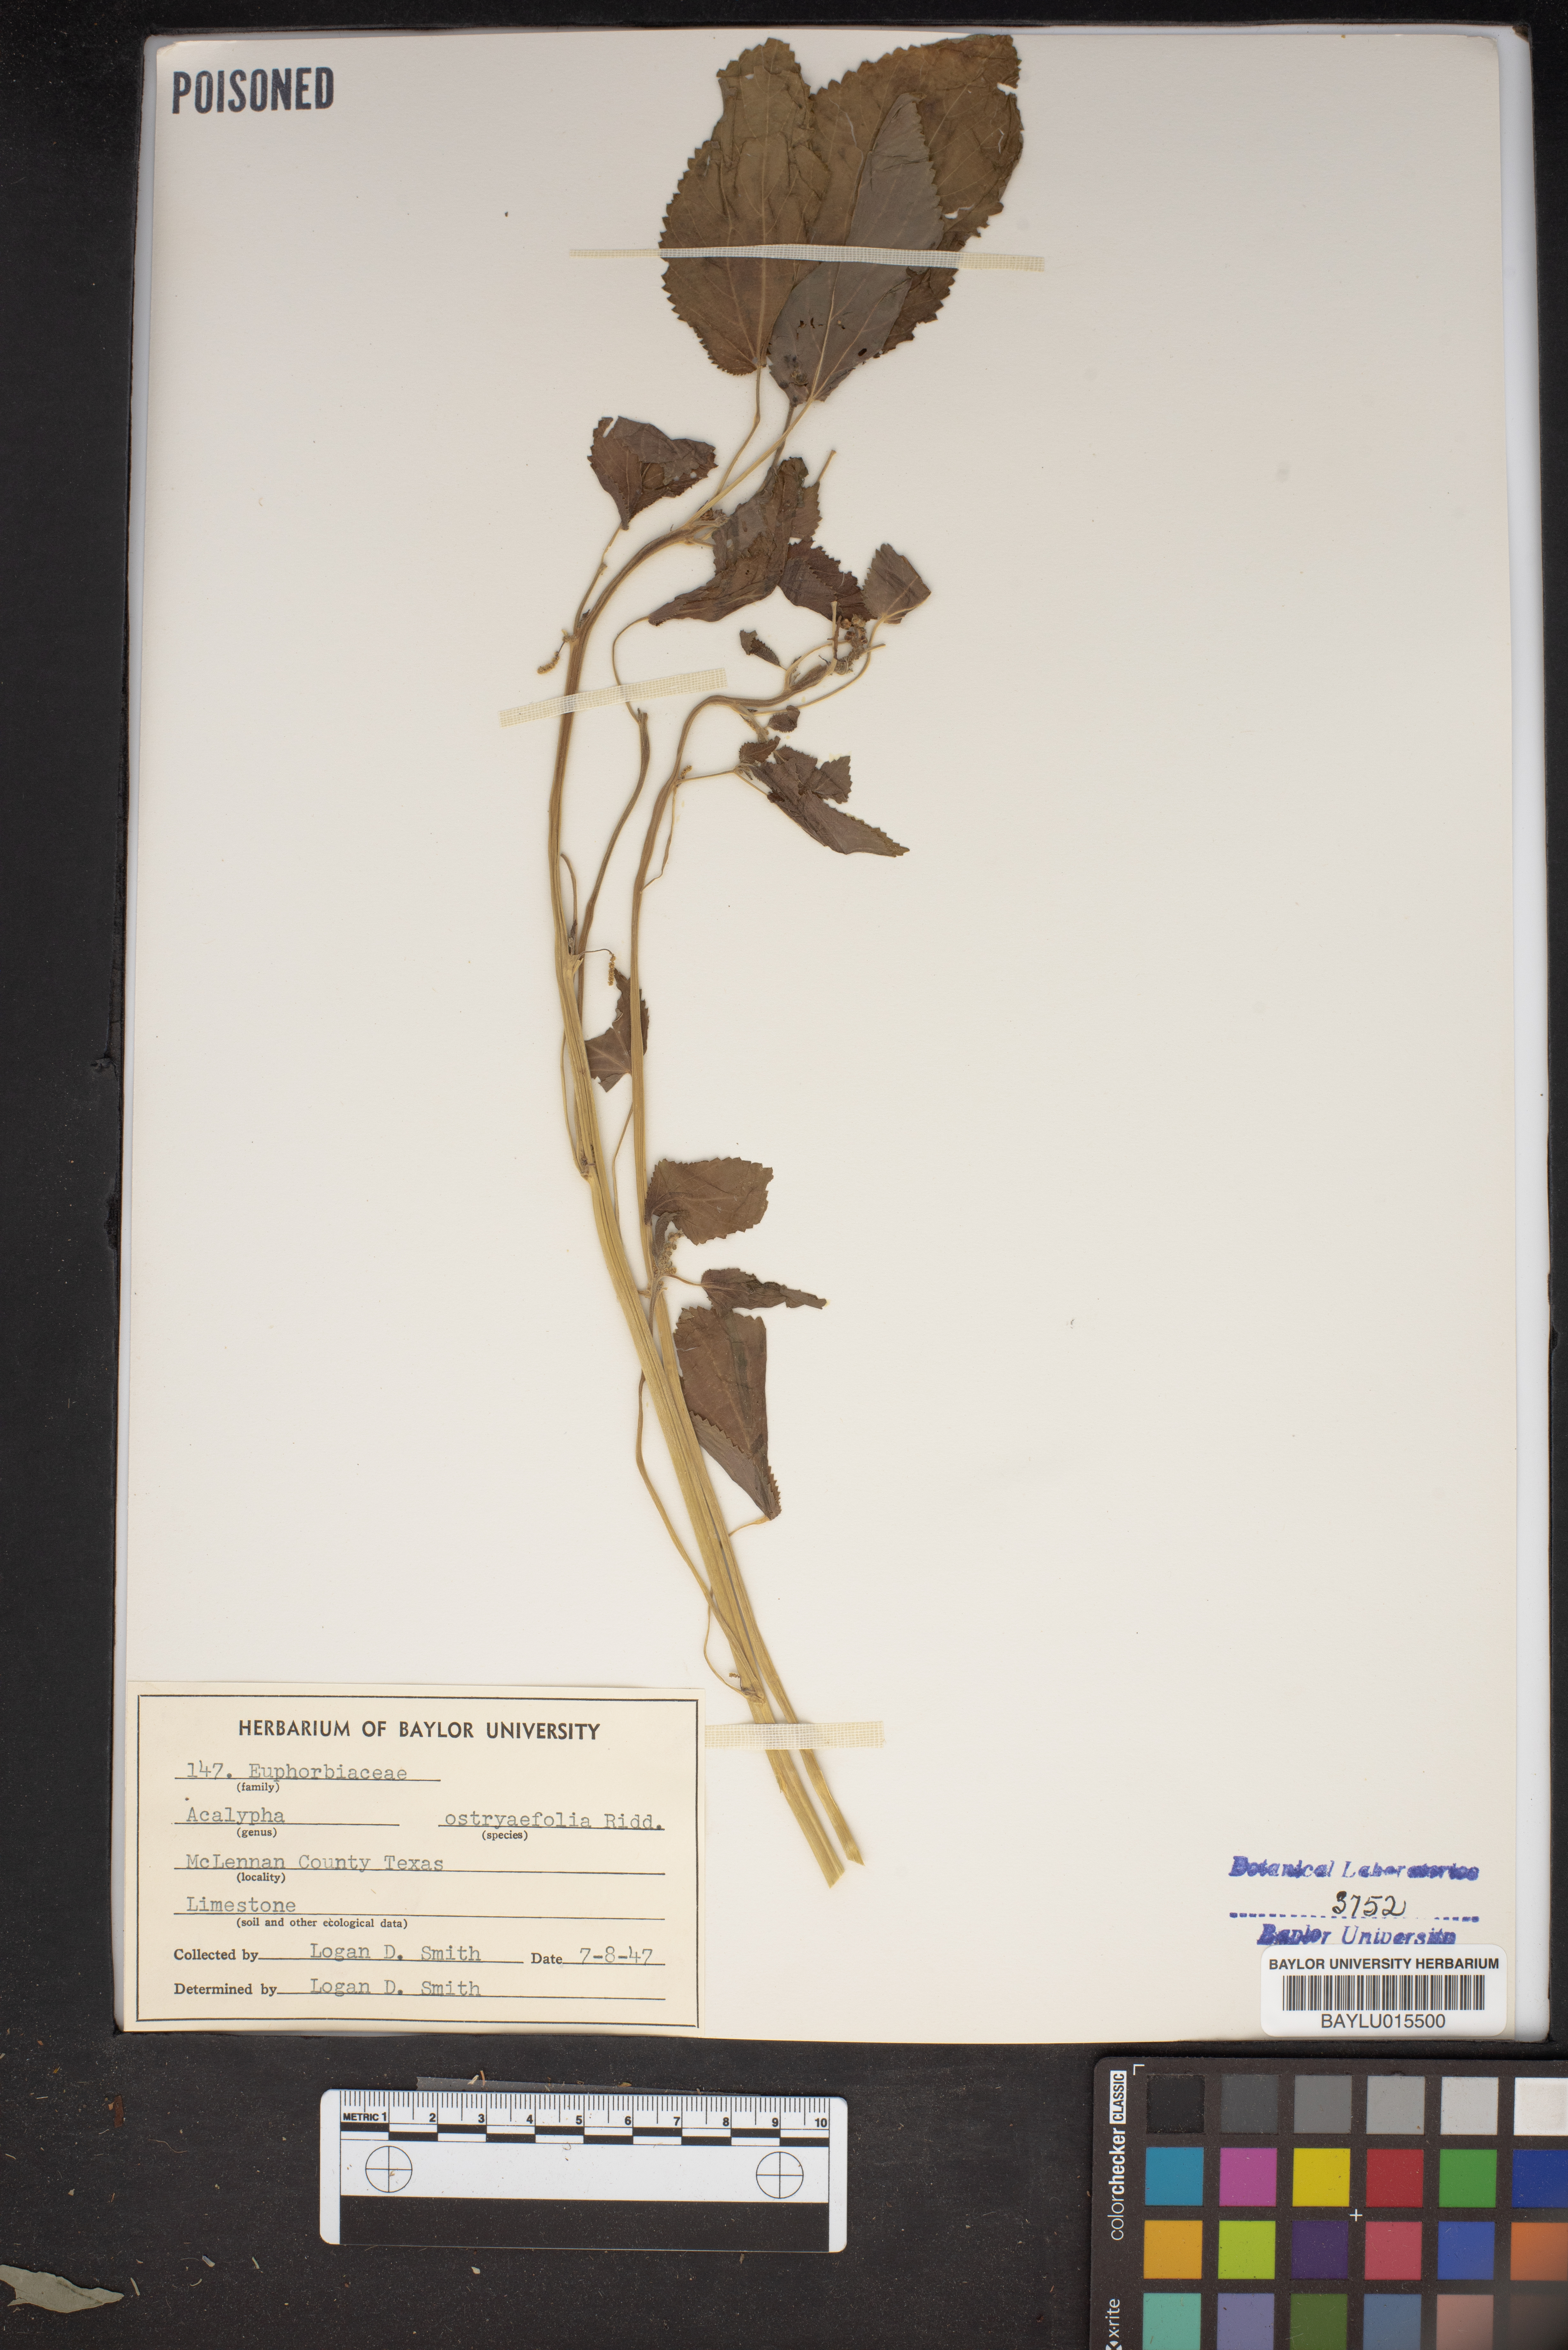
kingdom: Plantae
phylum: Tracheophyta
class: Magnoliopsida
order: Malpighiales
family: Euphorbiaceae
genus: Acalypha
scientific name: Acalypha ostryifolia
